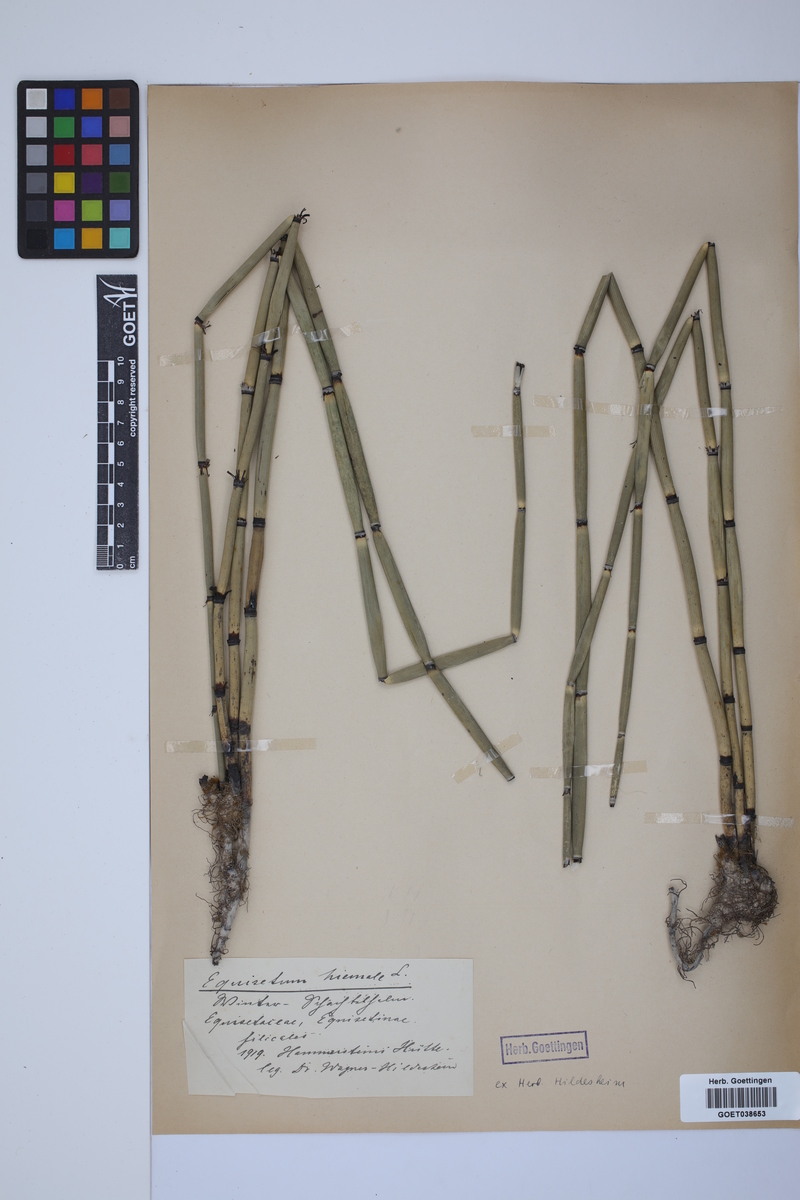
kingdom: Plantae
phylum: Tracheophyta
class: Polypodiopsida
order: Equisetales
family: Equisetaceae
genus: Equisetum
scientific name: Equisetum hyemale
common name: Rough horsetail
